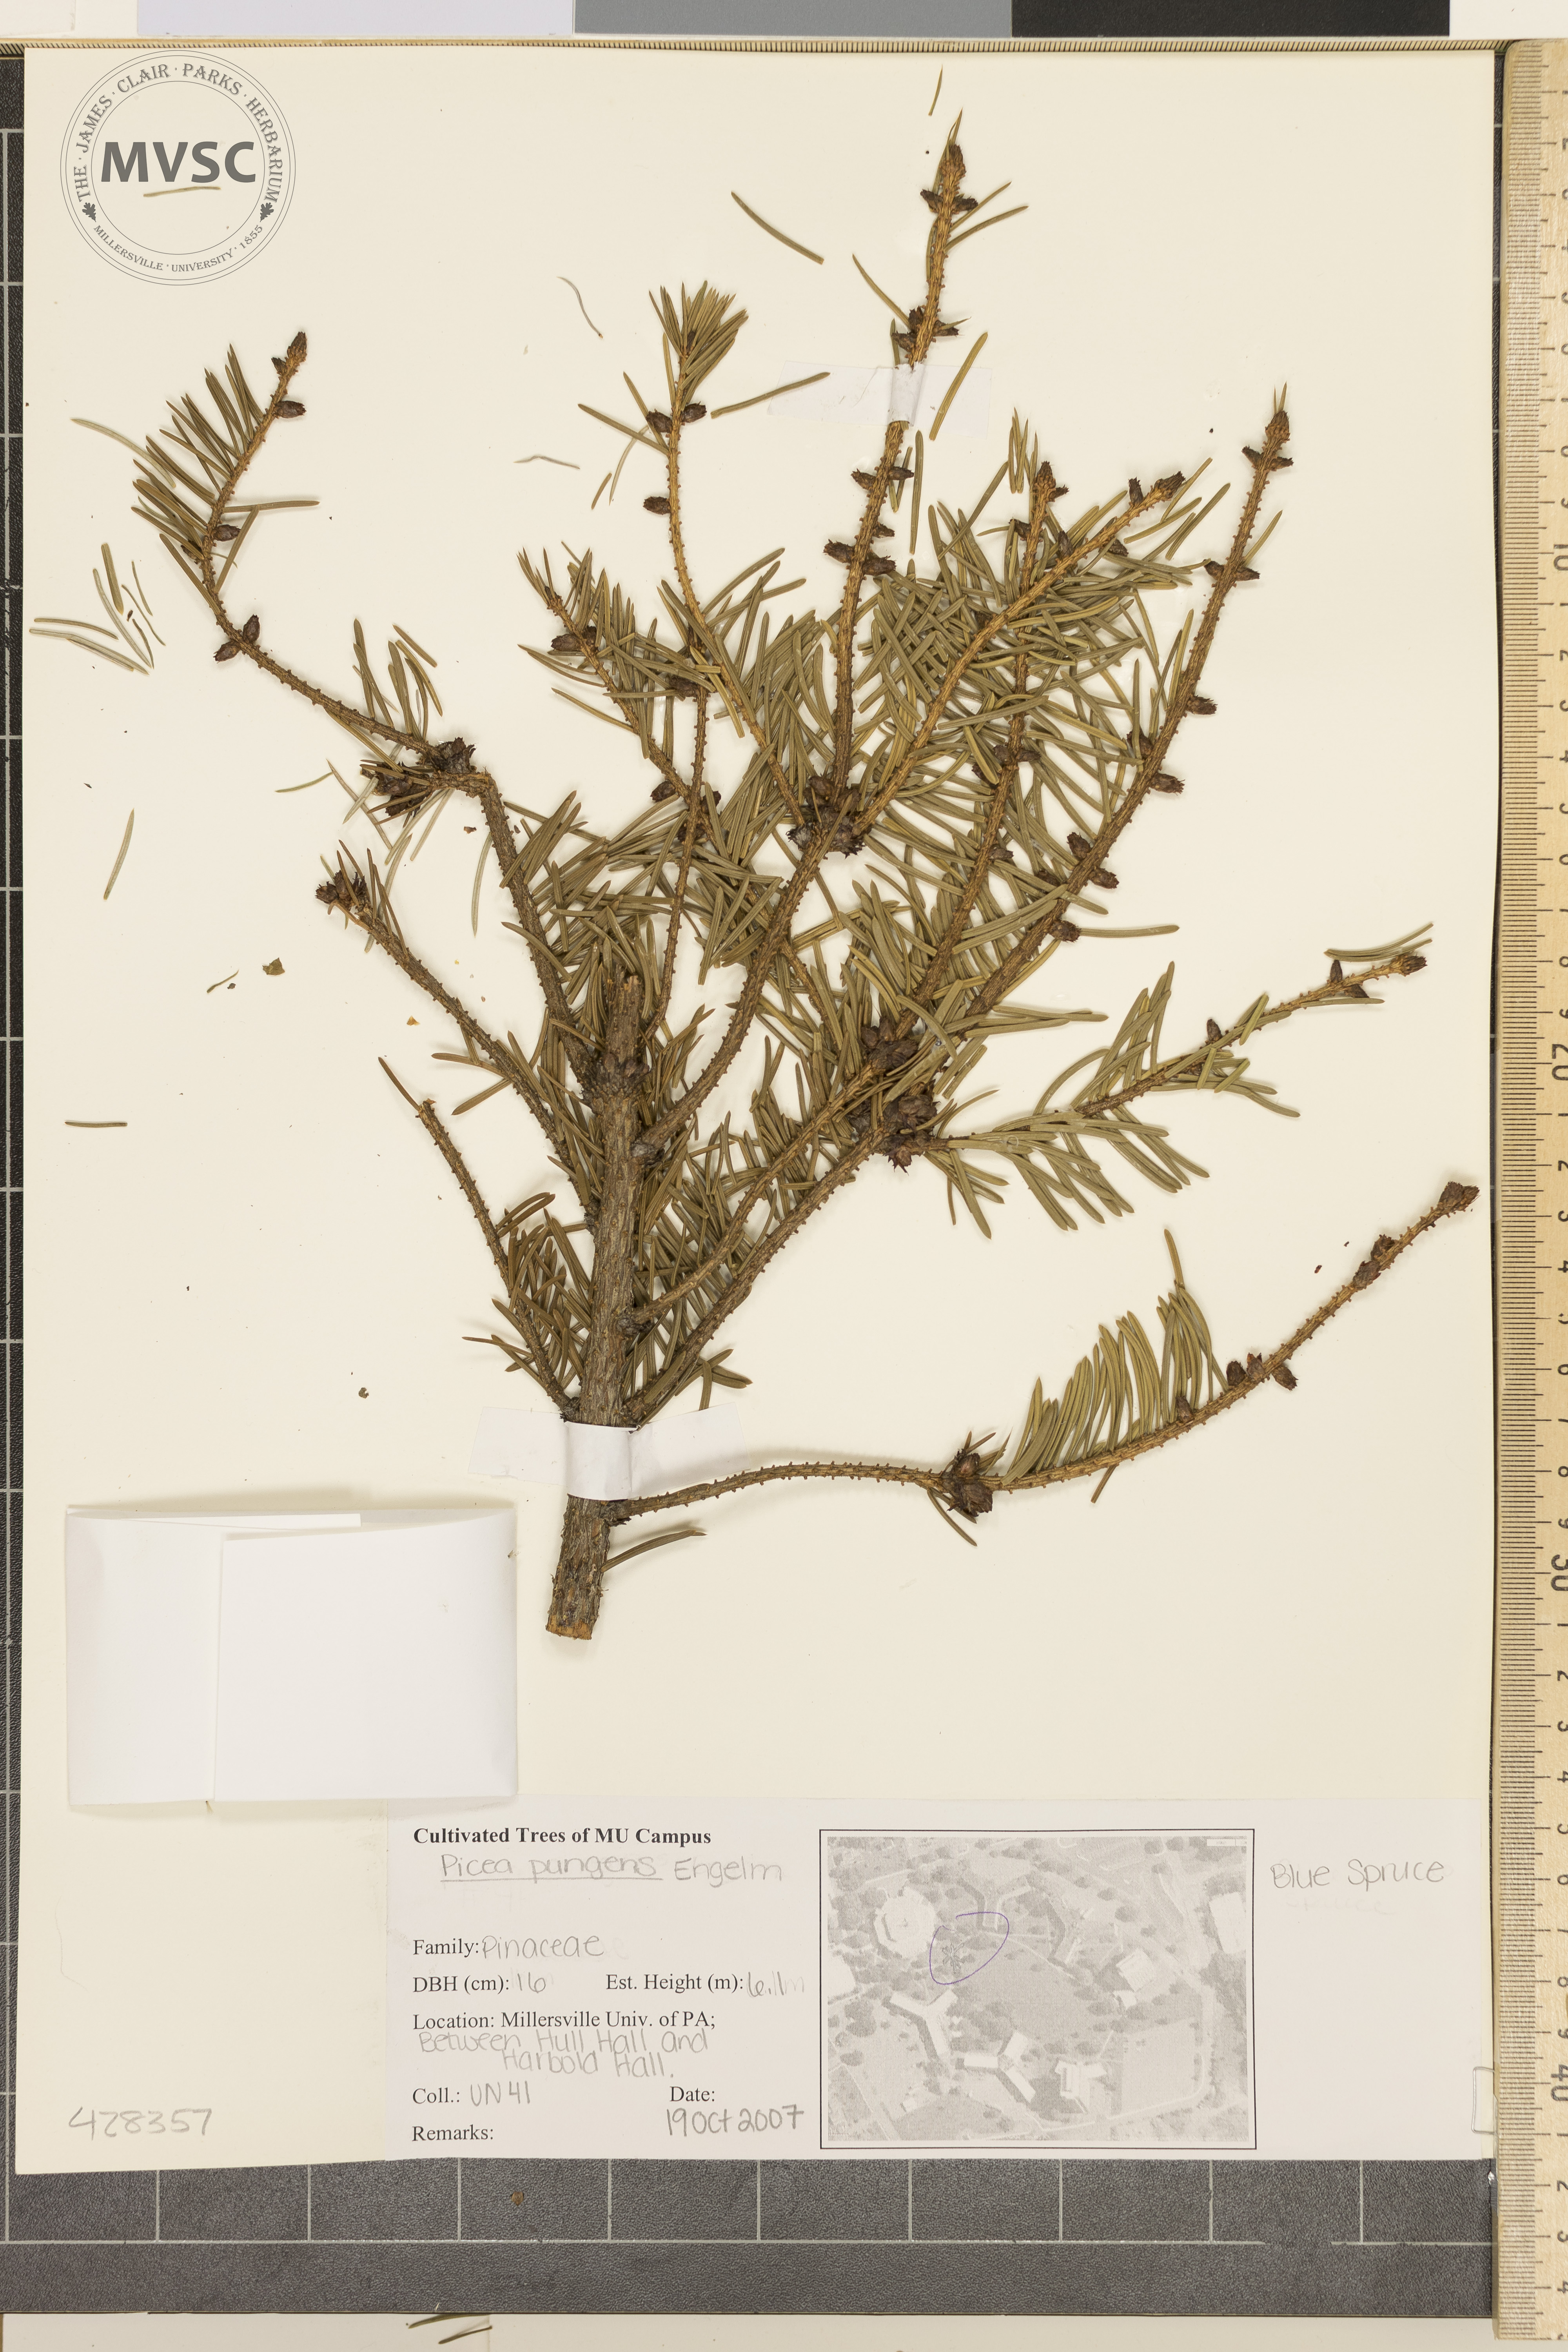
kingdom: Plantae
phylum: Tracheophyta
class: Pinopsida
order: Pinales
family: Pinaceae
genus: Picea
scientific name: Picea pungens
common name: Colorado Blue Spruce
